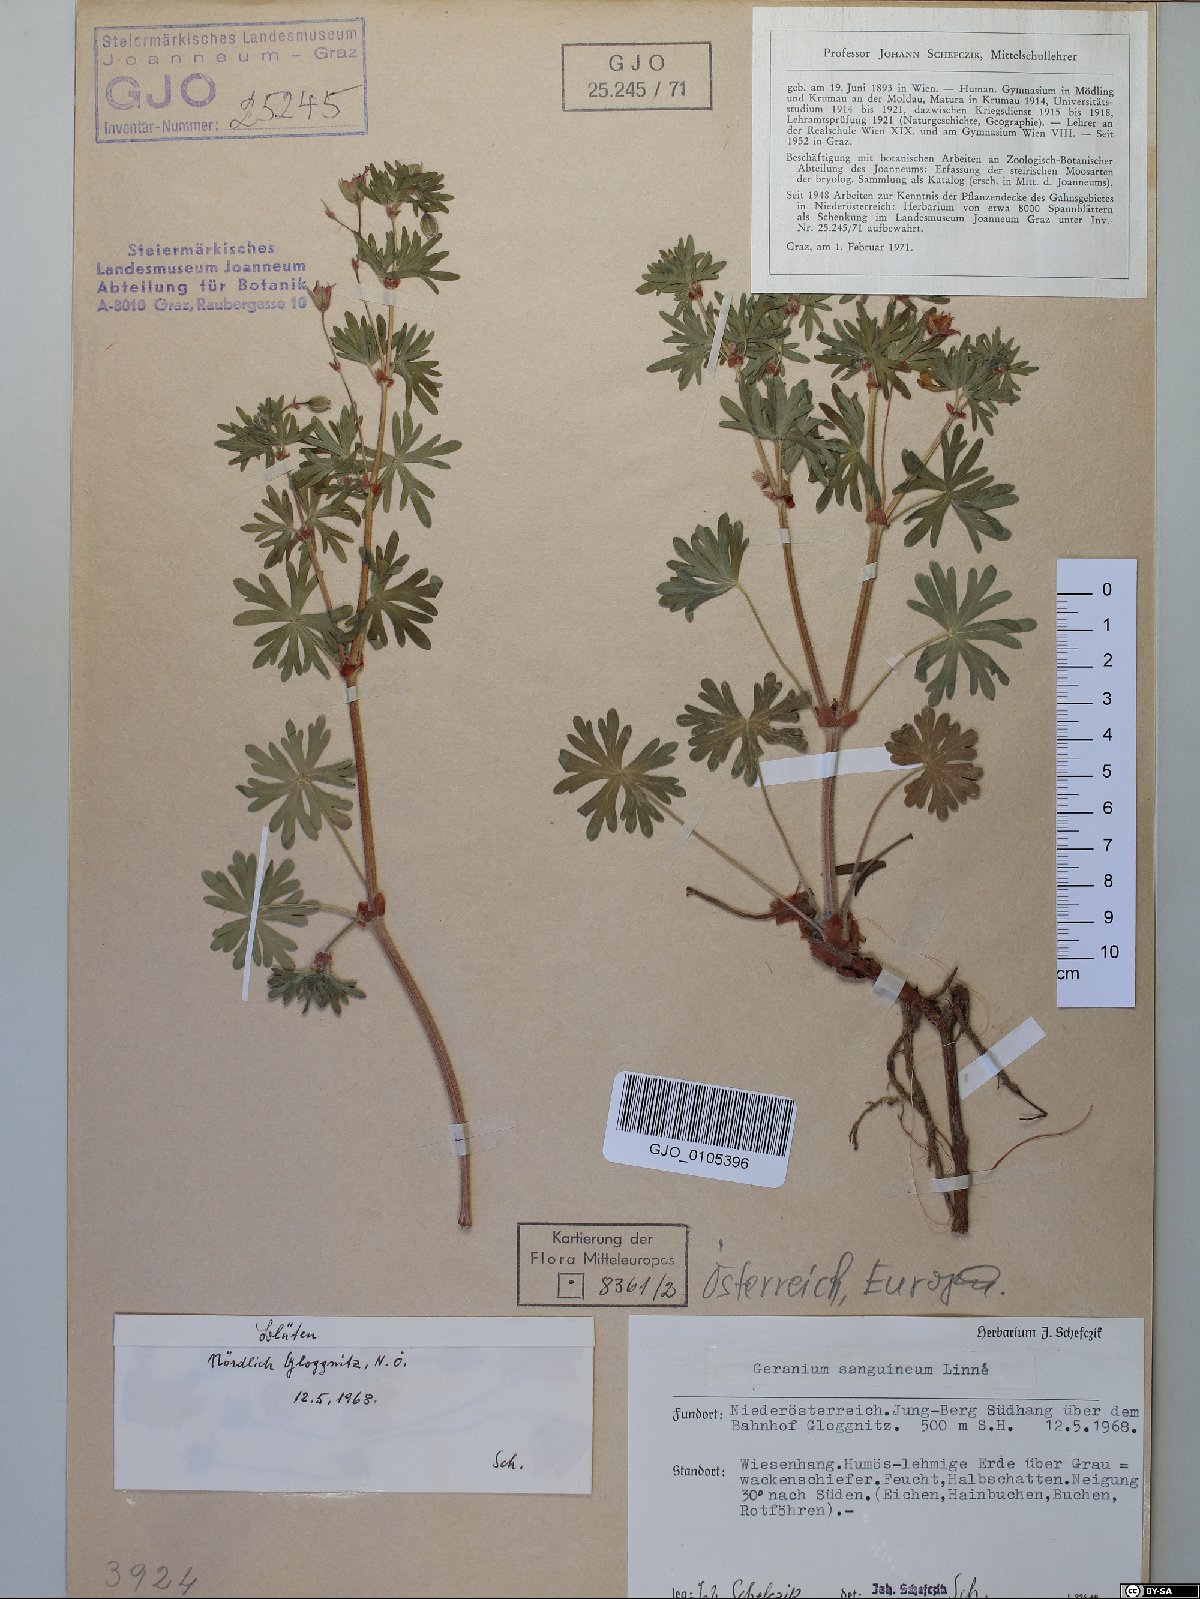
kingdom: Plantae
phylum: Tracheophyta
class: Magnoliopsida
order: Geraniales
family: Geraniaceae
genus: Geranium
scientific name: Geranium sanguineum
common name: Bloody crane's-bill
